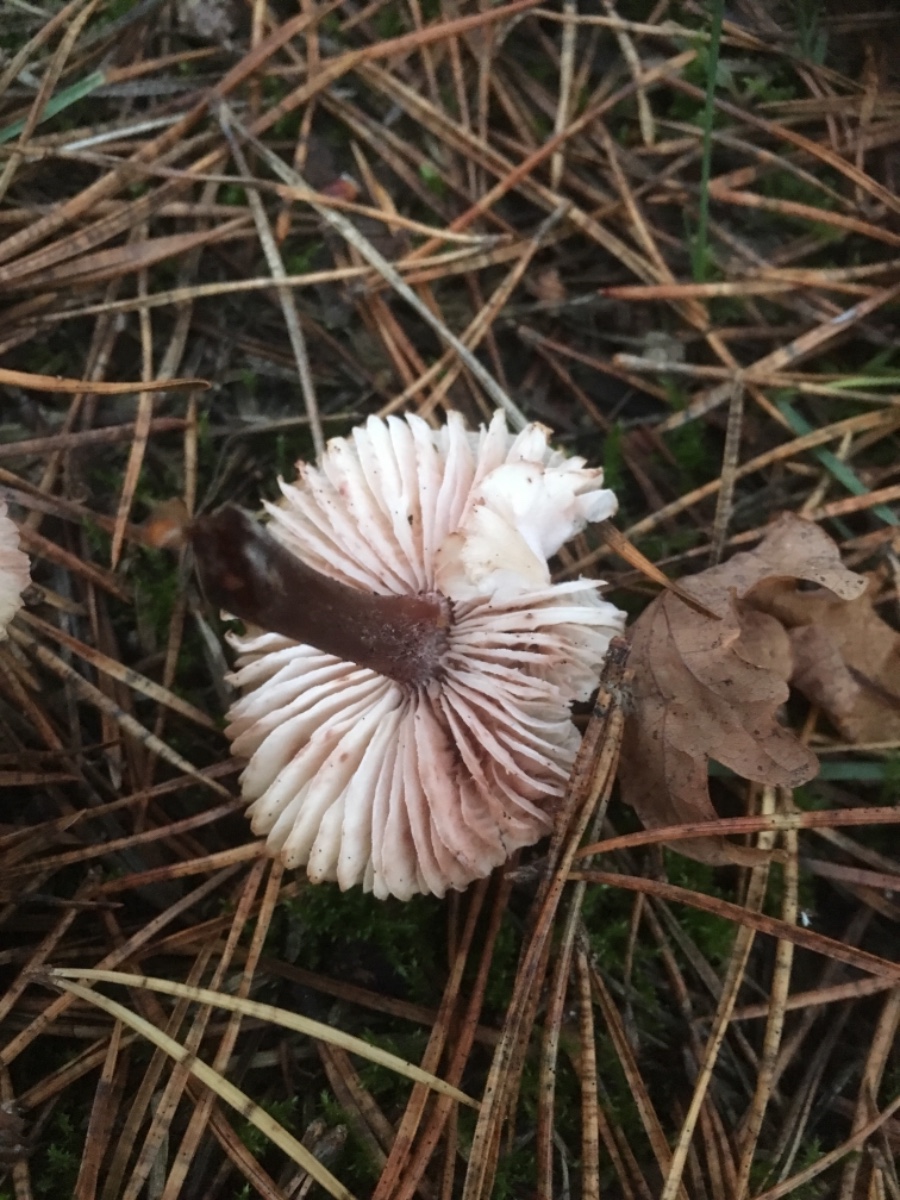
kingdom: Fungi
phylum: Basidiomycota
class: Agaricomycetes
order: Agaricales
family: Mycenaceae
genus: Mycena
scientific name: Mycena zephirus
